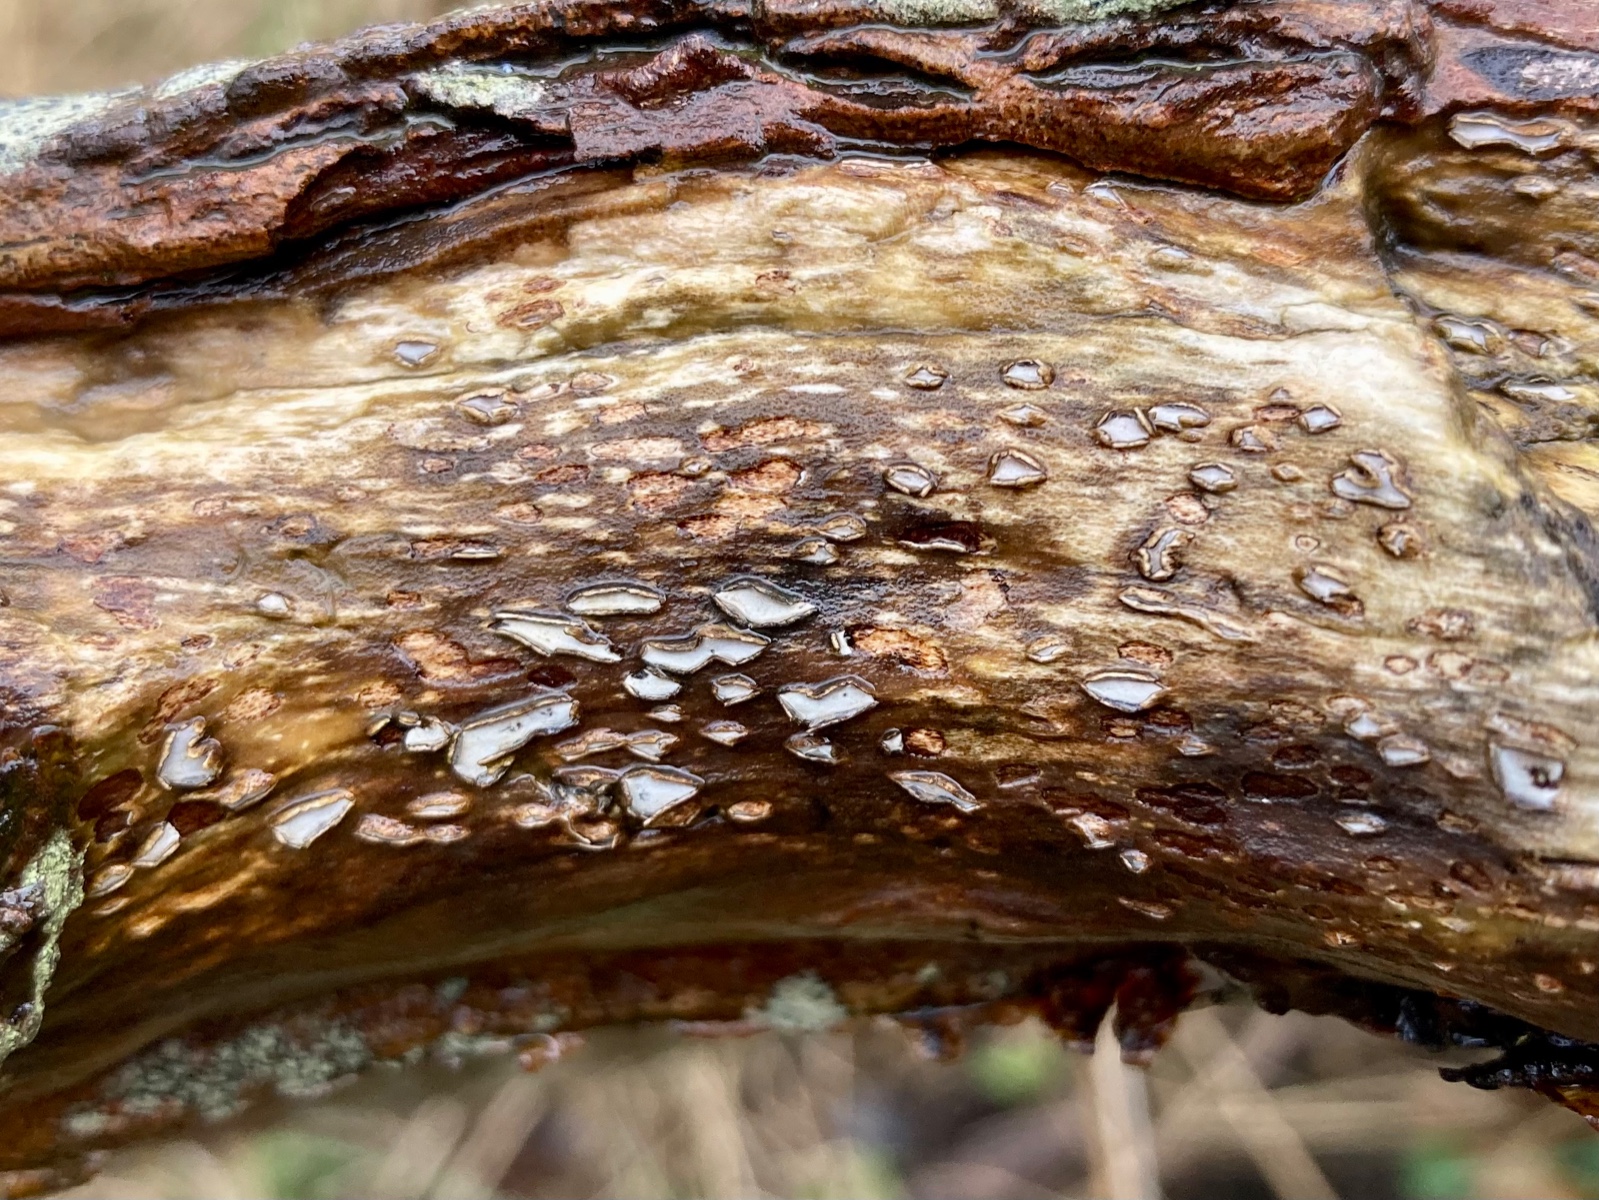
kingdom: Fungi
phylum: Ascomycota
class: Leotiomycetes
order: Chaetomellales
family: Marthamycetaceae
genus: Propolis
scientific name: Propolis farinosa
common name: almindelig vedsprængerskive
